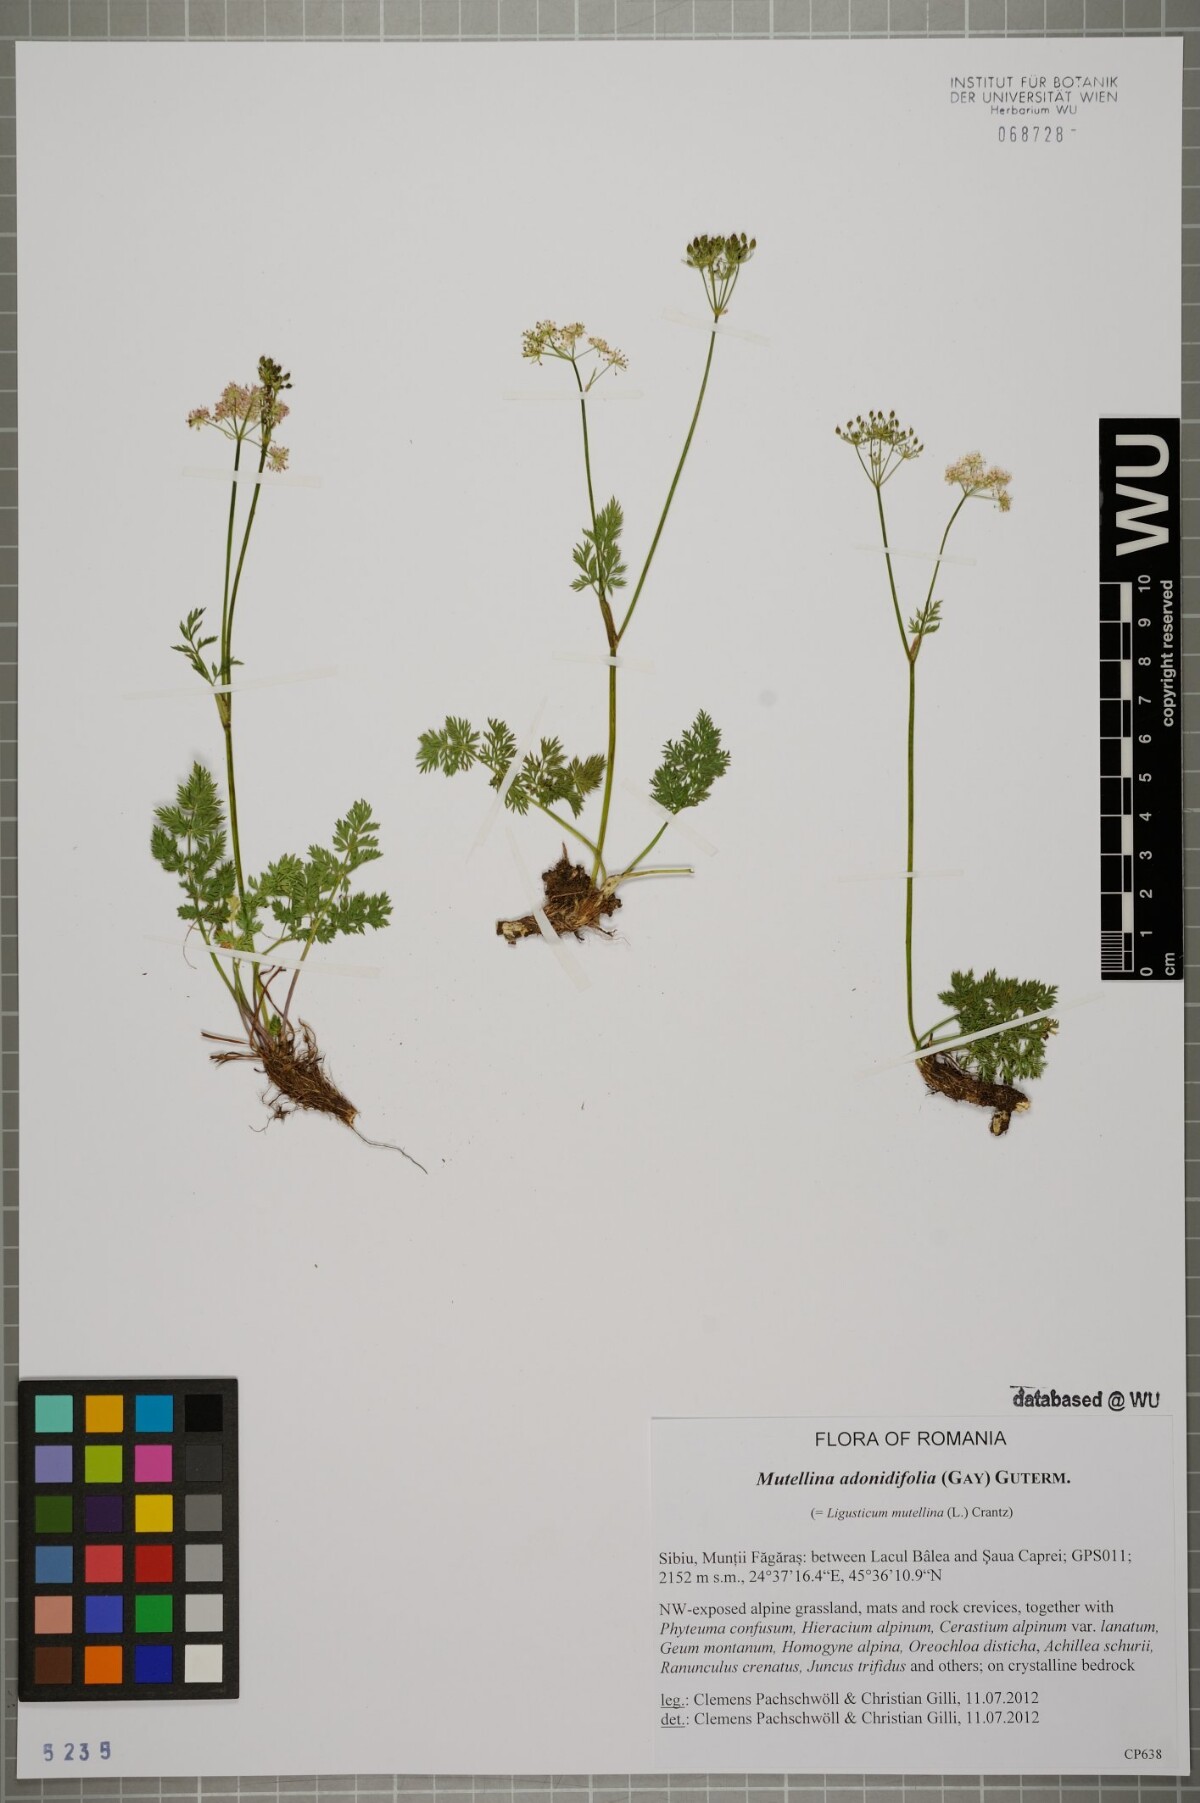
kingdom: Plantae
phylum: Tracheophyta
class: Magnoliopsida
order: Apiales
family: Apiaceae
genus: Mutellina
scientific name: Mutellina adonidifolia
